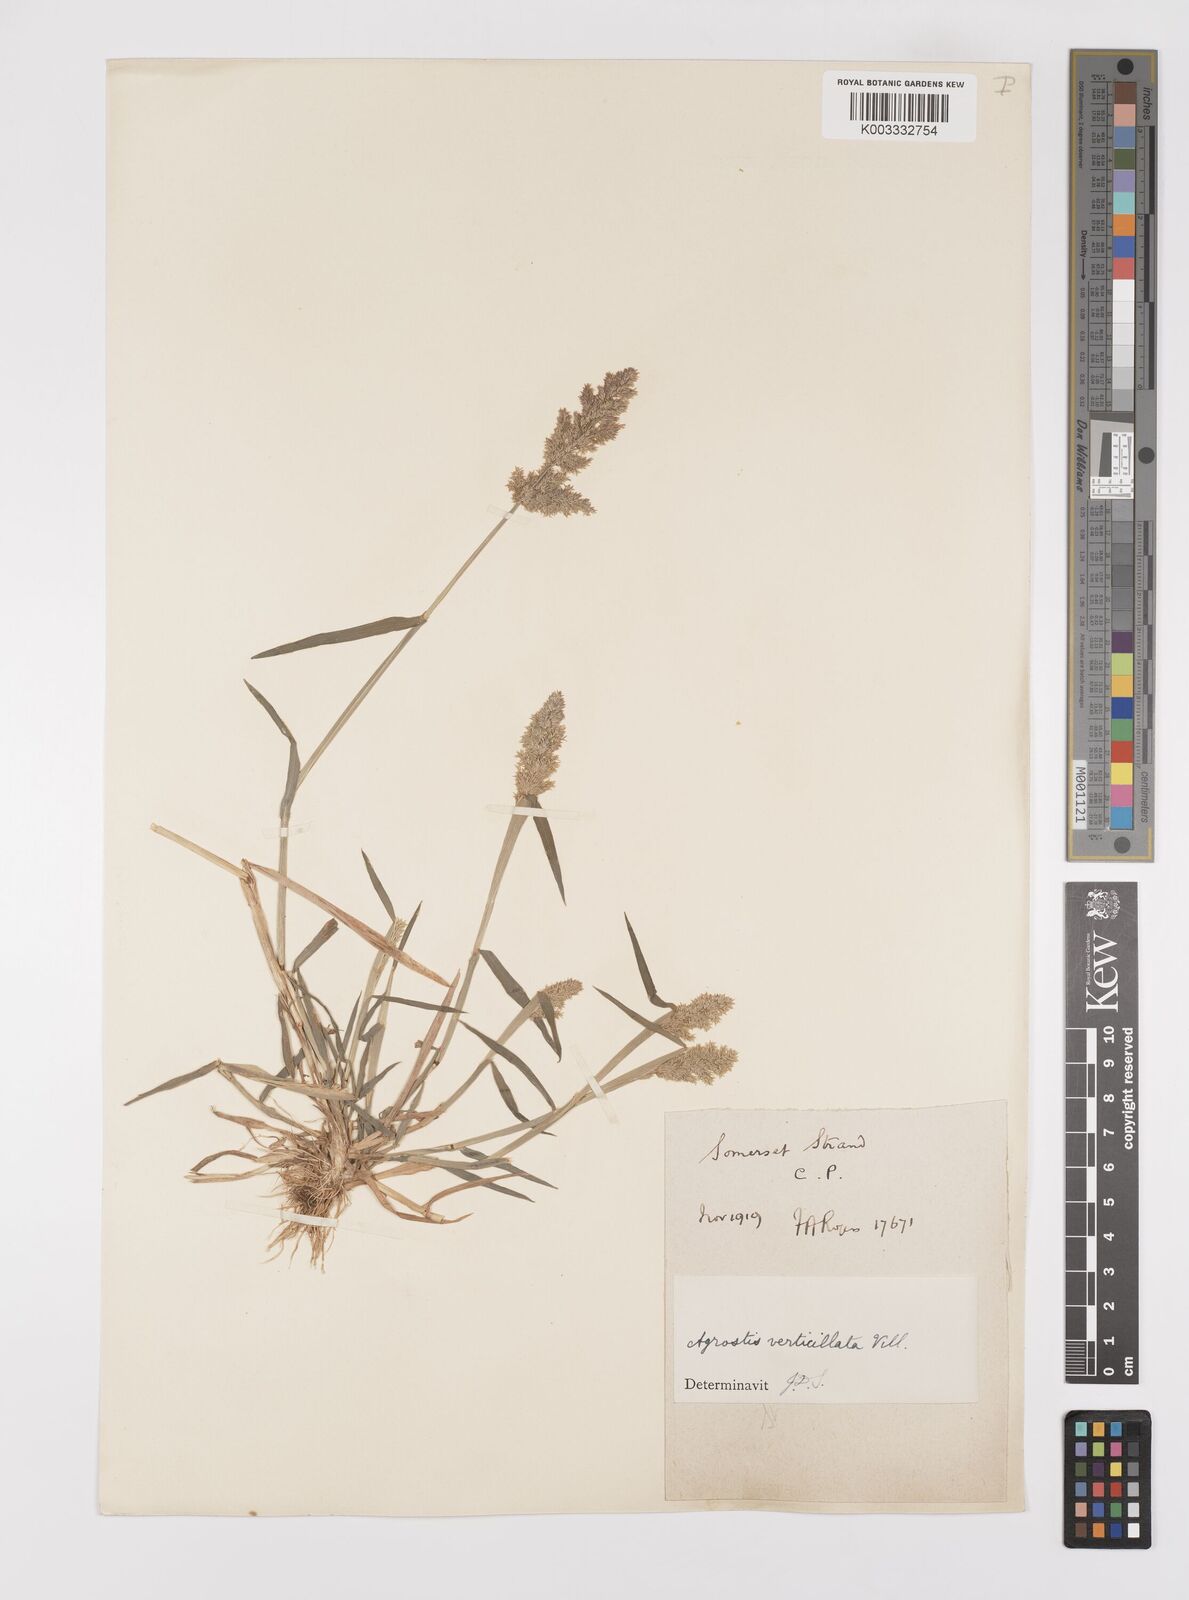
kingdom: Plantae
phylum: Tracheophyta
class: Liliopsida
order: Poales
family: Poaceae
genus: Polypogon
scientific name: Polypogon viridis
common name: Water bent
